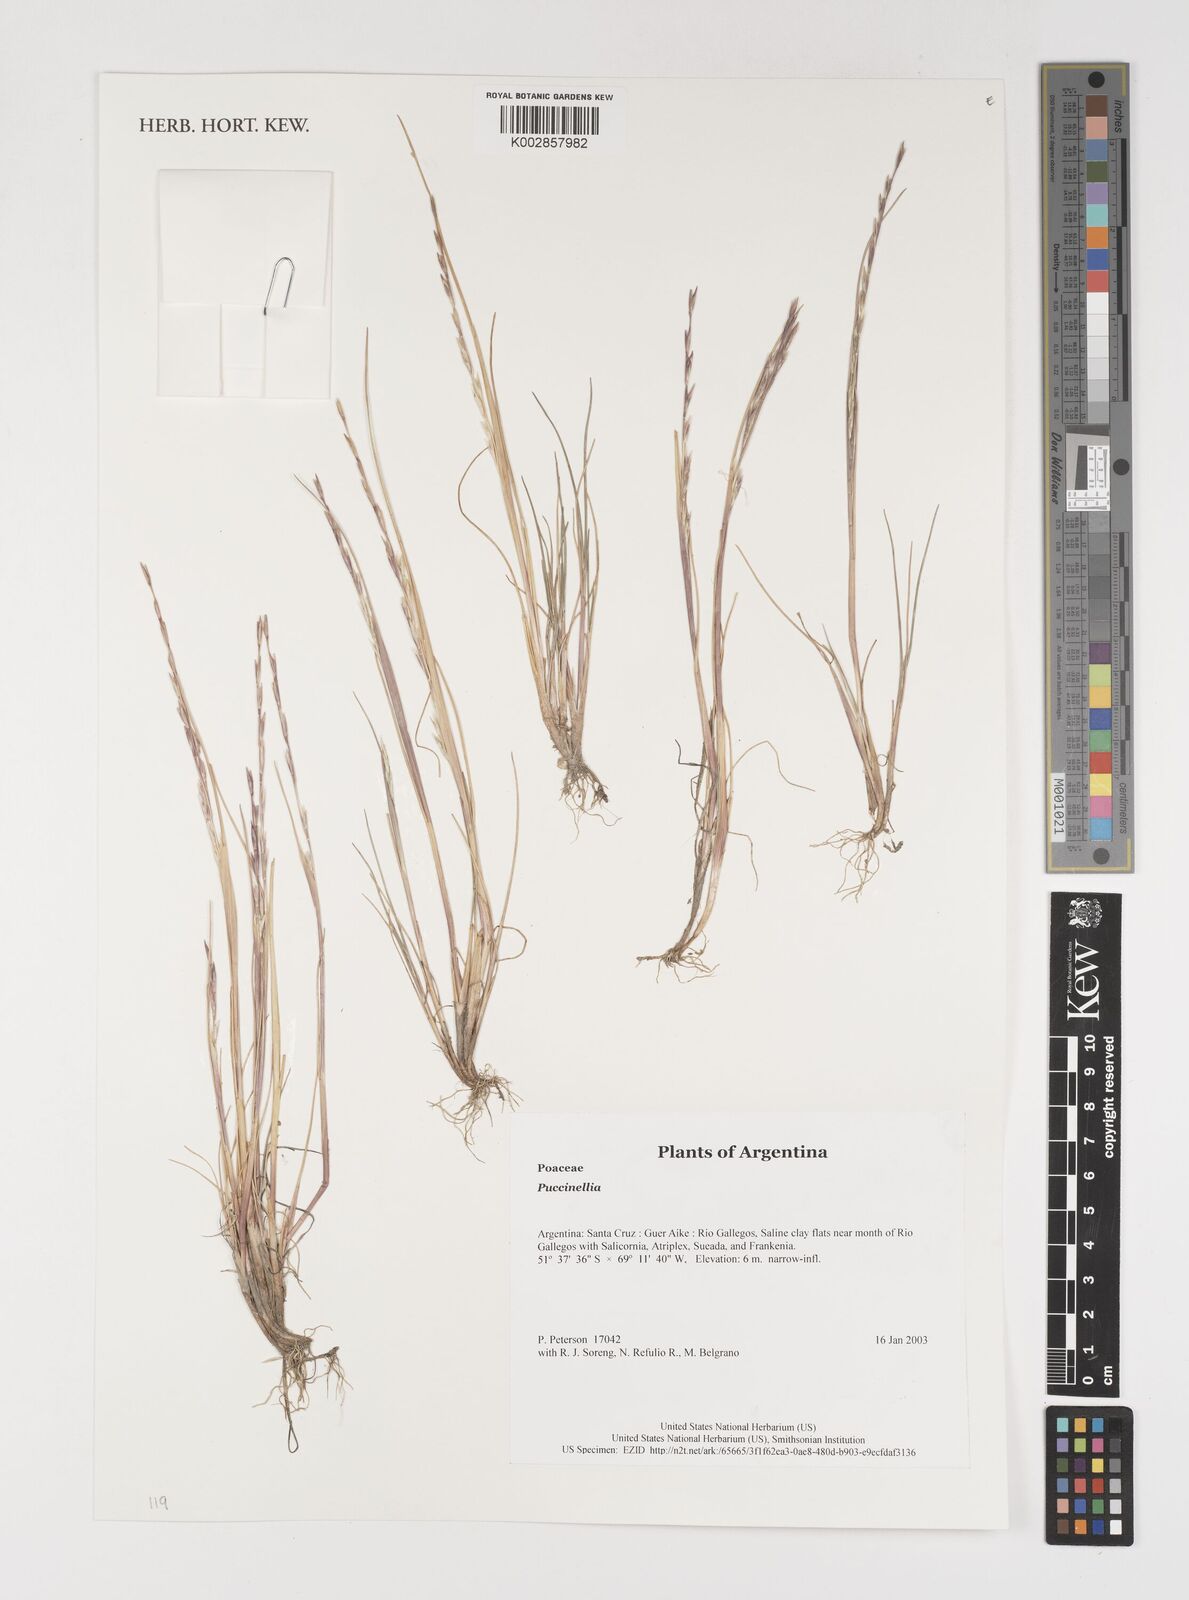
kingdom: Plantae
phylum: Tracheophyta
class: Liliopsida
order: Poales
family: Poaceae
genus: Puccinellia
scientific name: Puccinellia
